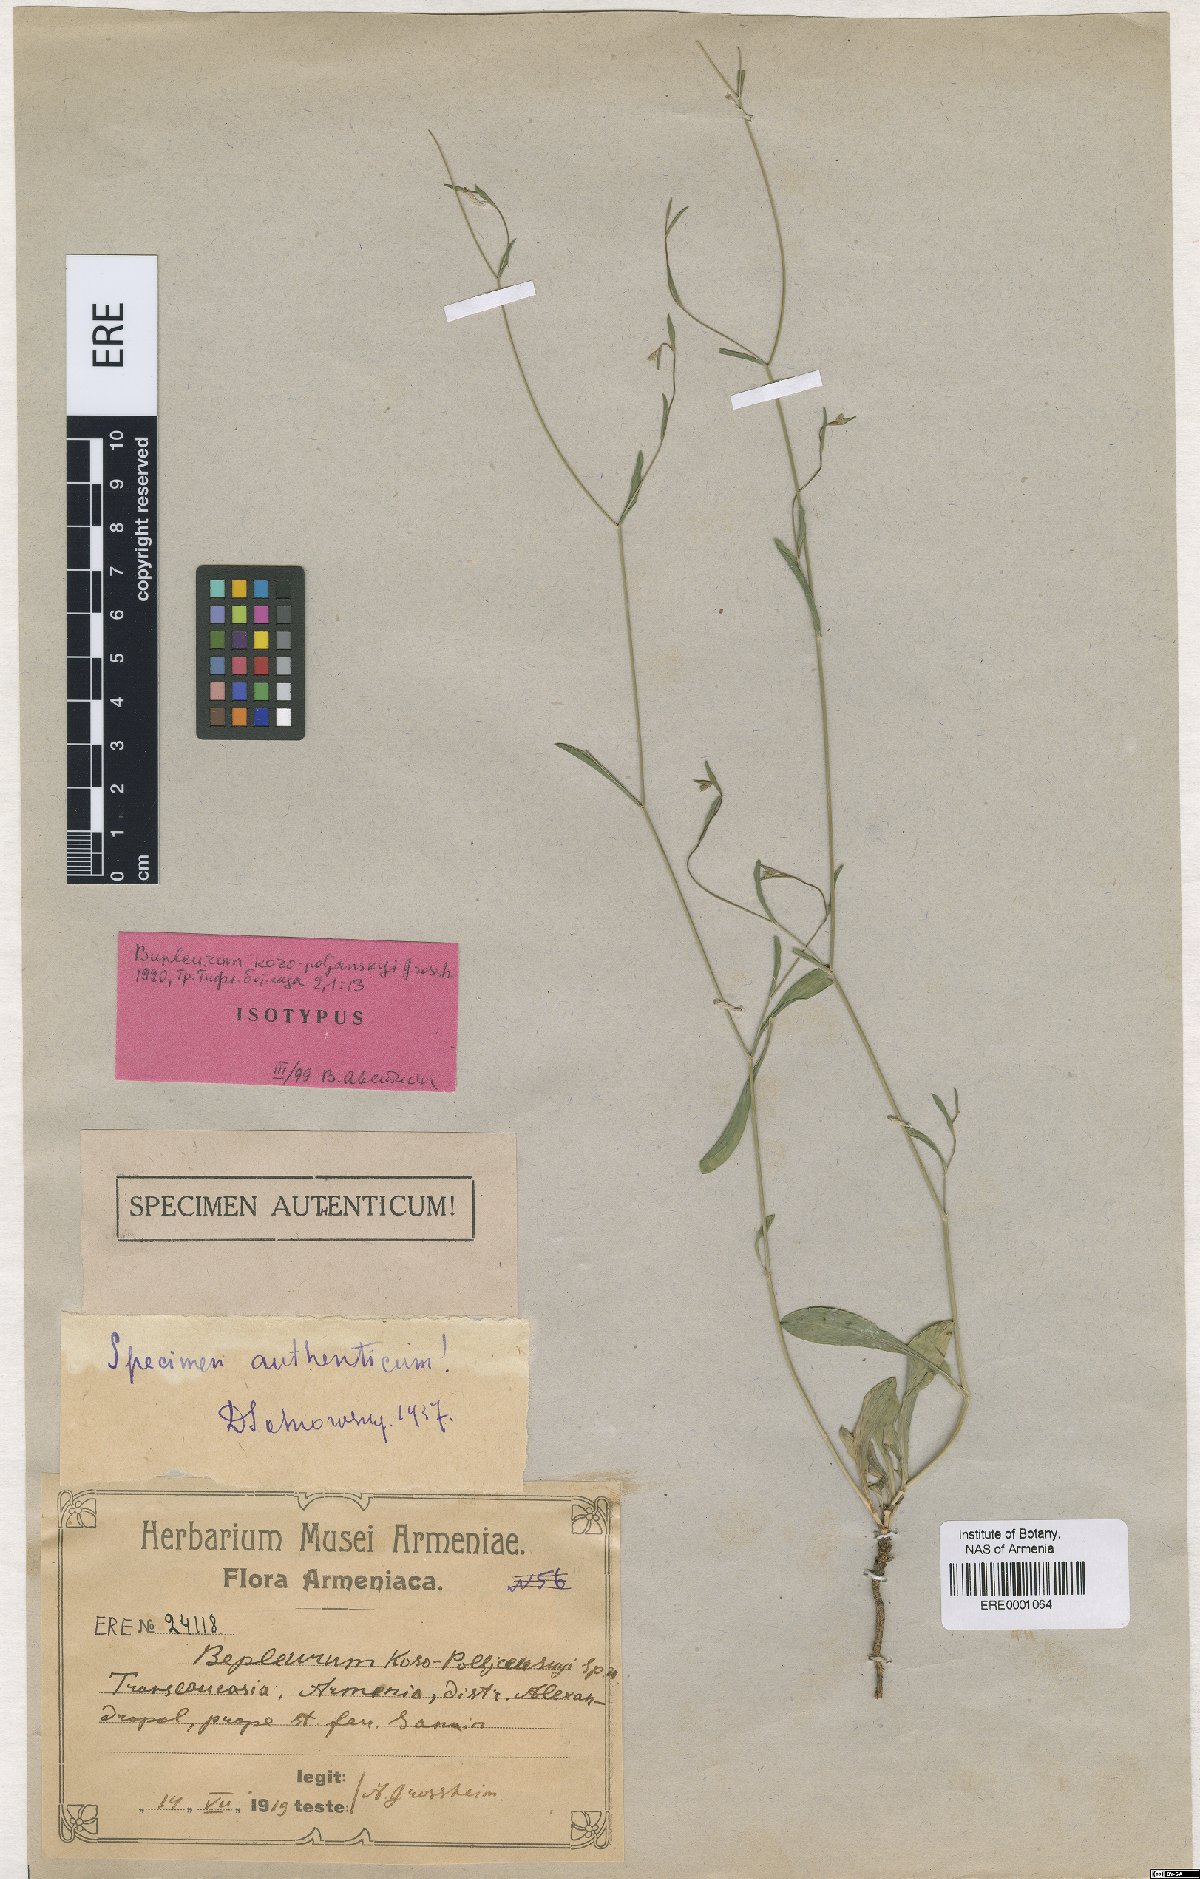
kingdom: Plantae
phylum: Tracheophyta
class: Magnoliopsida
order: Apiales
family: Apiaceae
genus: Bupleurum
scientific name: Bupleurum kosopolianskyi
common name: Kozo-poljanskyi's thoroughwax
